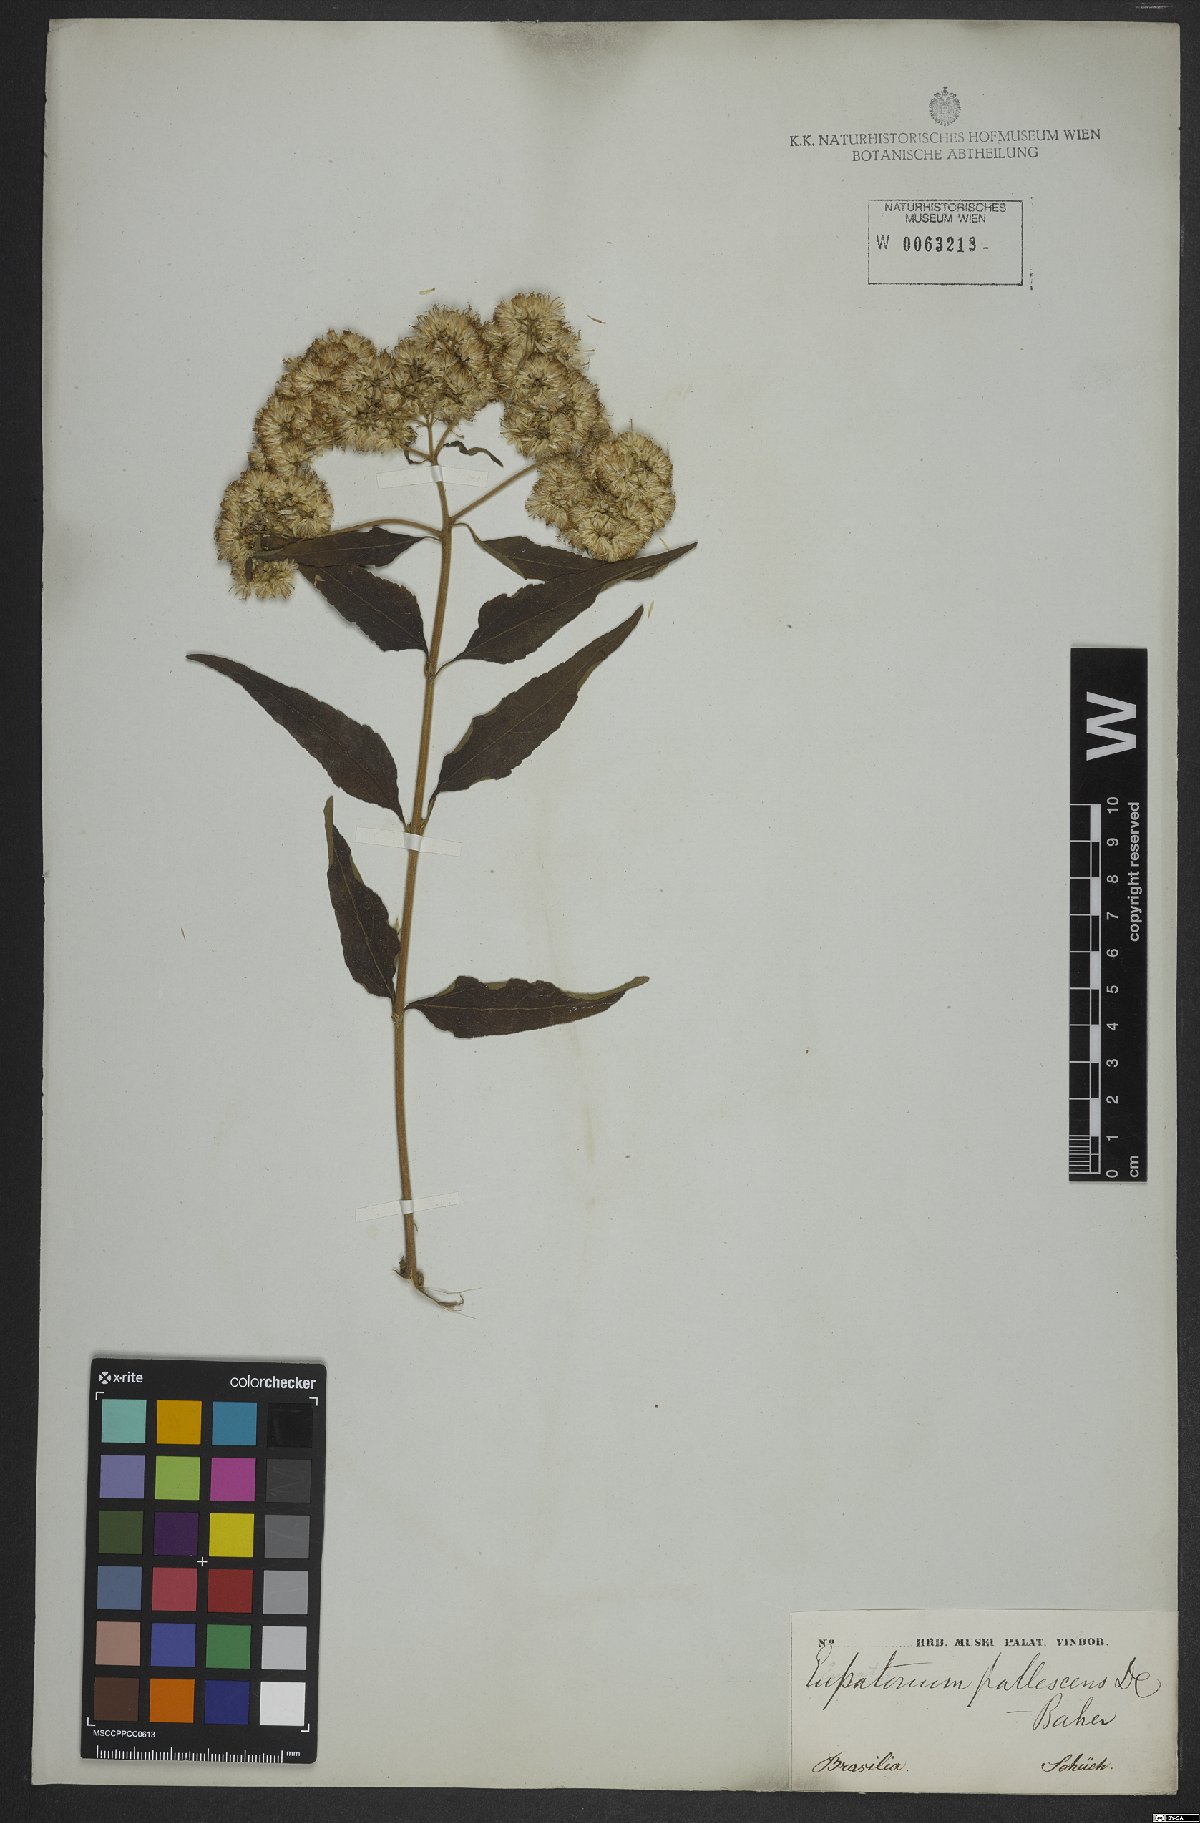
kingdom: Plantae
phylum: Tracheophyta
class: Magnoliopsida
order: Asterales
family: Asteraceae
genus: Austroeupatorium
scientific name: Austroeupatorium inulifolium
